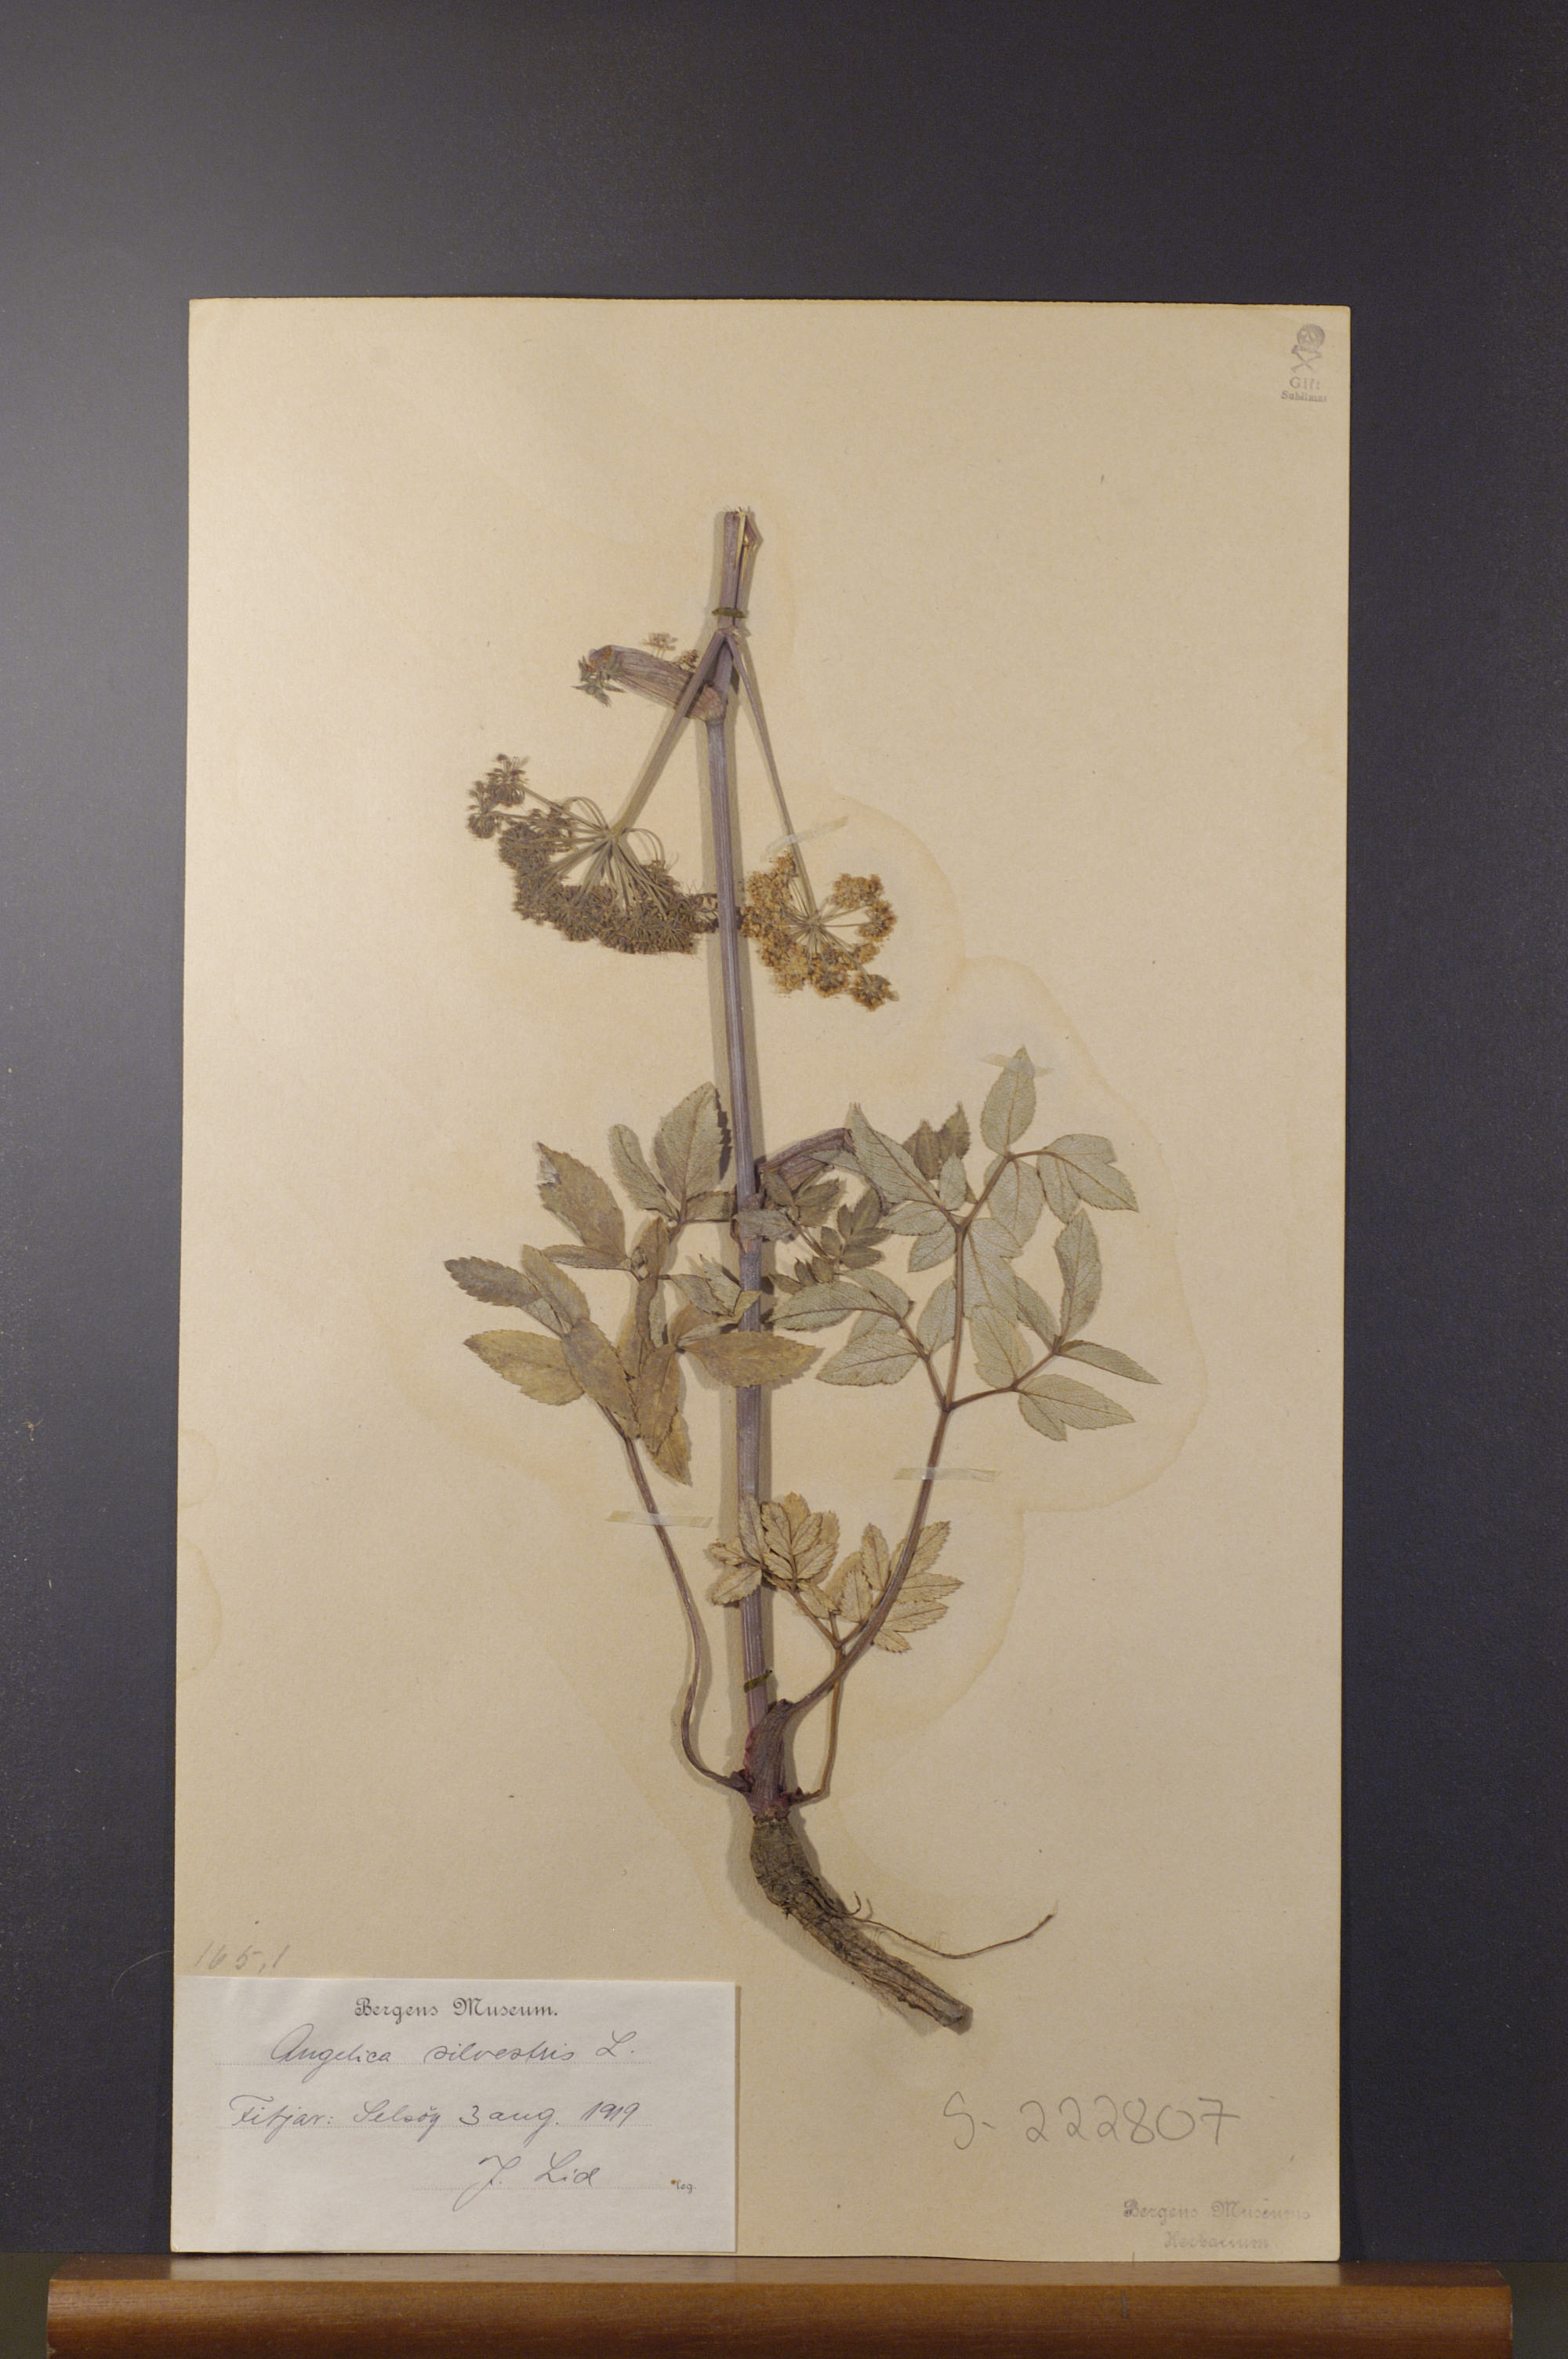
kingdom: Plantae
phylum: Tracheophyta
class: Magnoliopsida
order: Apiales
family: Apiaceae
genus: Angelica
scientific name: Angelica sylvestris
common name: Wild angelica
